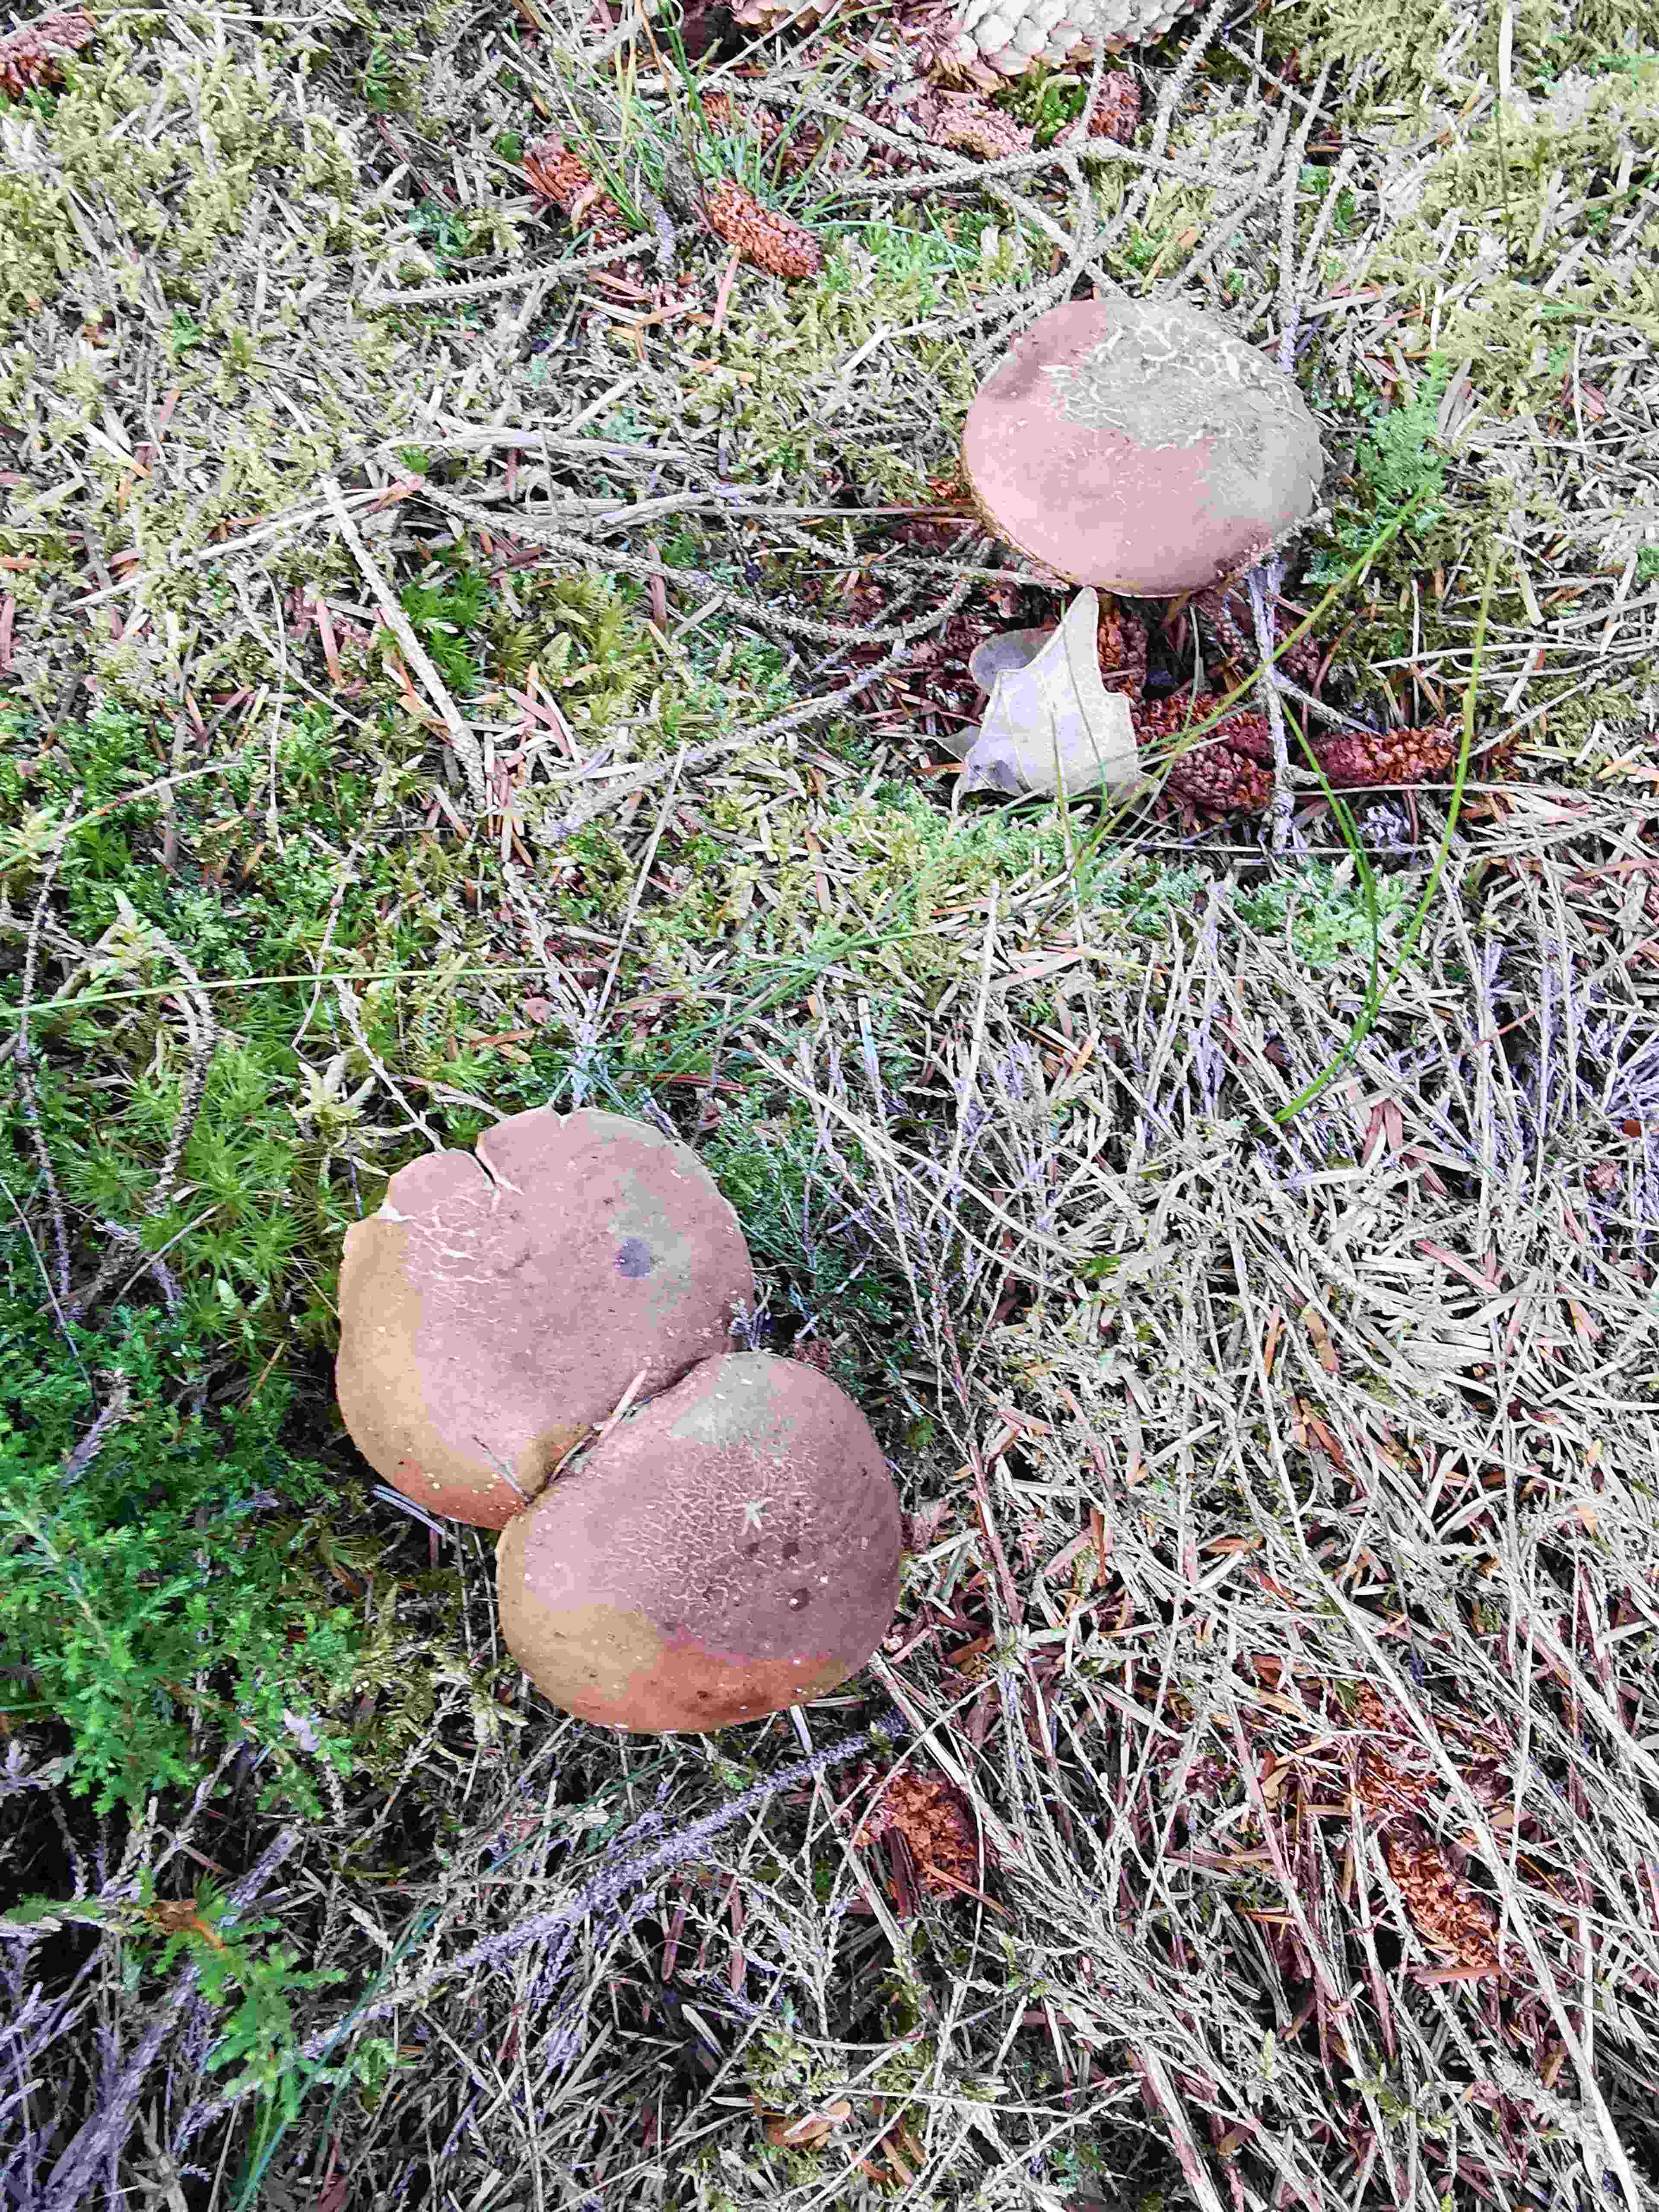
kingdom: Fungi
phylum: Basidiomycota
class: Agaricomycetes
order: Boletales
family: Boletaceae
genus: Tylopilus
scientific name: Tylopilus felleus
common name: galderørhat
